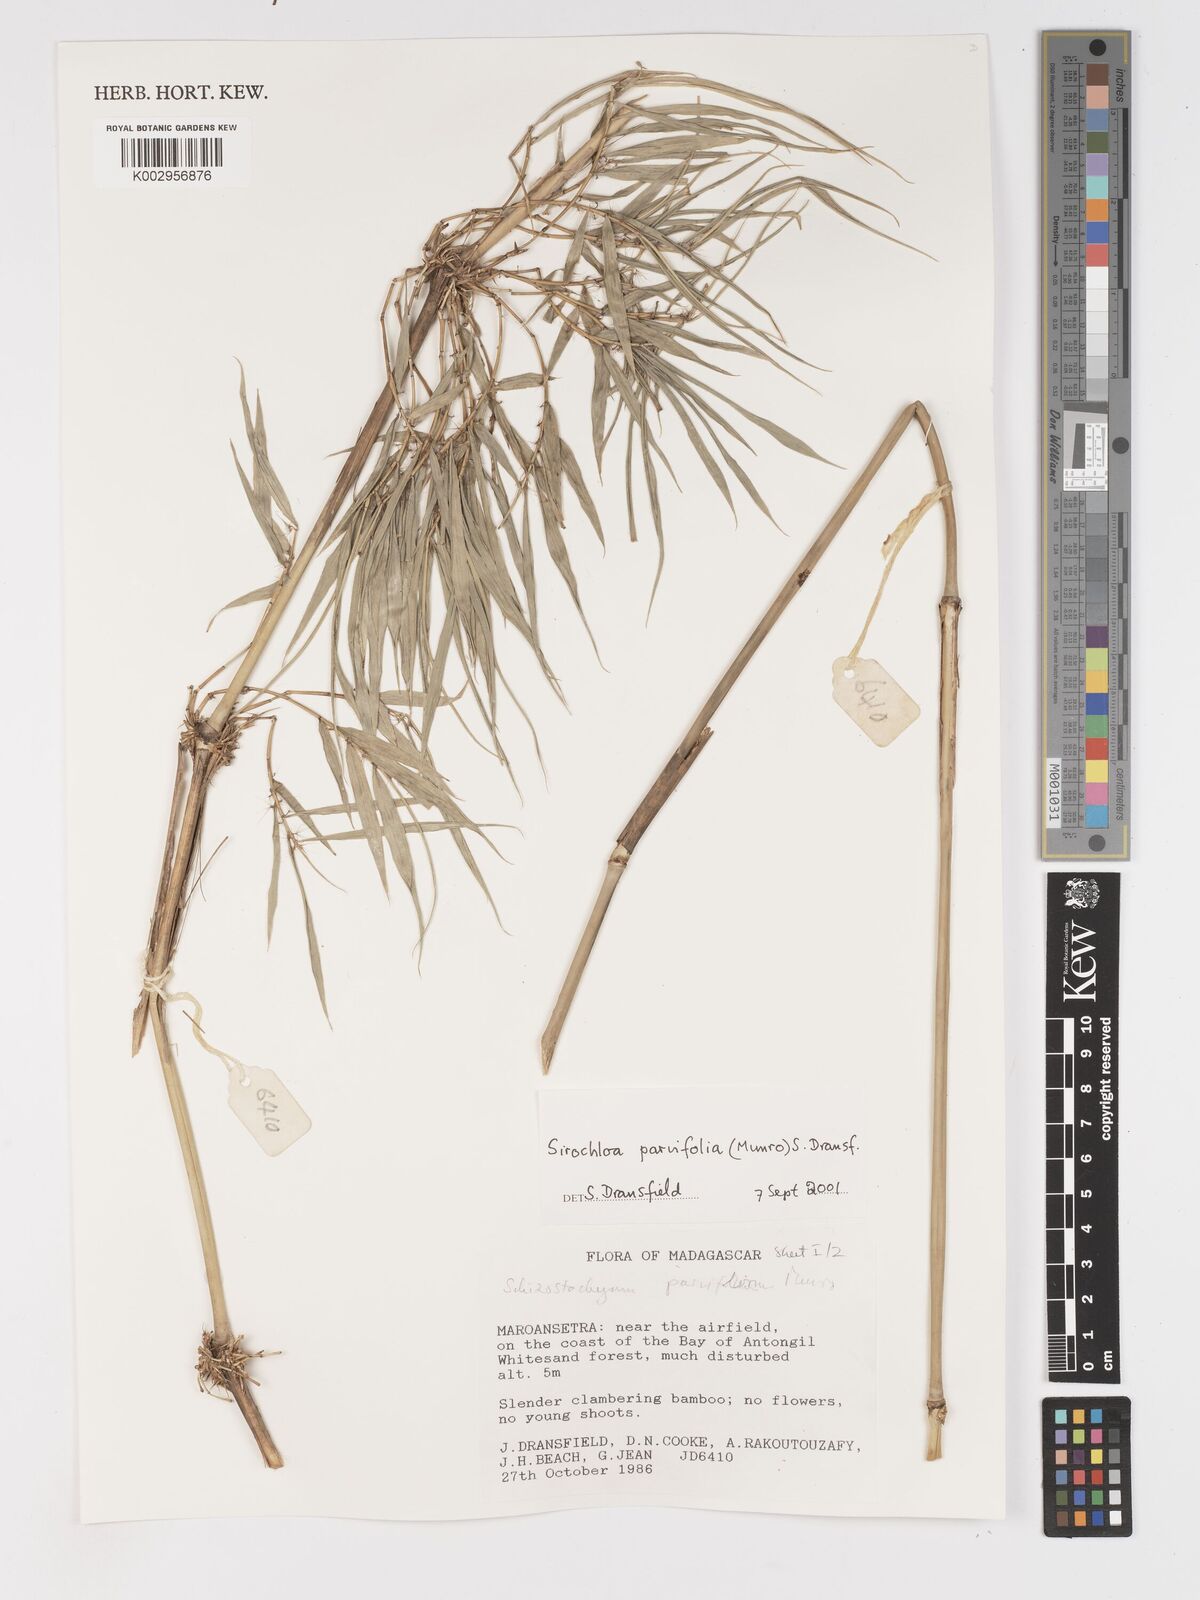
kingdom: Plantae
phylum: Tracheophyta
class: Liliopsida
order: Poales
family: Poaceae
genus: Sirochloa
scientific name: Sirochloa parvifolia
